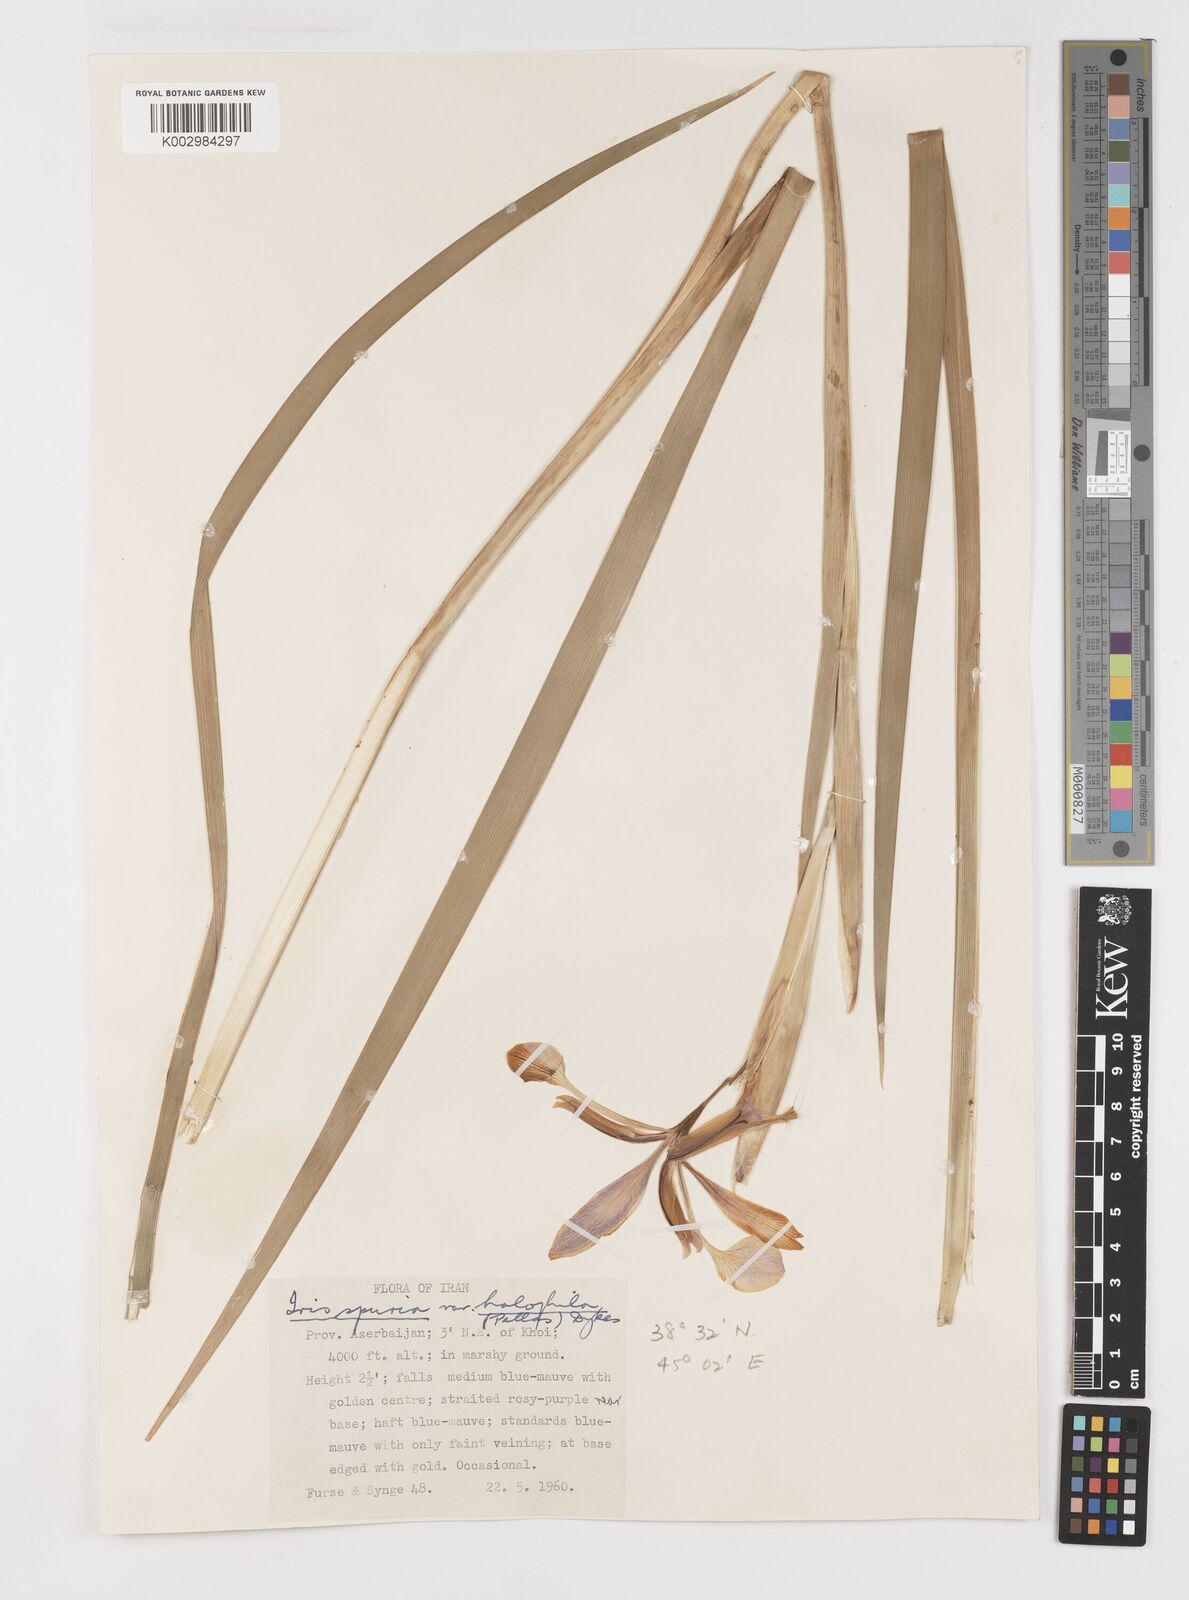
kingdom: Plantae
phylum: Tracheophyta
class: Liliopsida
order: Asparagales
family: Iridaceae
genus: Iris
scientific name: Iris spuria
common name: Blue iris
